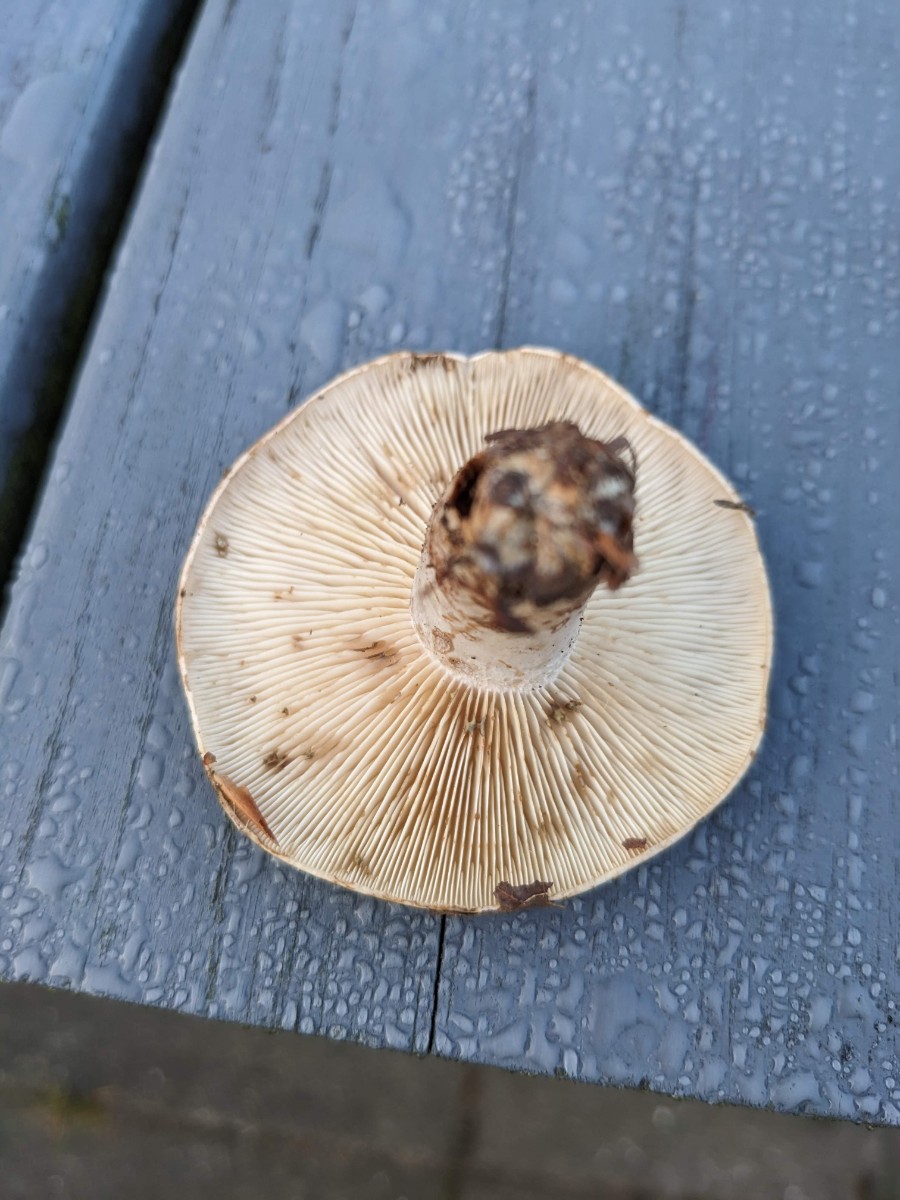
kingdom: Fungi
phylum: Basidiomycota
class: Agaricomycetes
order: Russulales
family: Russulaceae
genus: Lactarius
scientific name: Lactarius fluens
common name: lysrandet mælkehat
